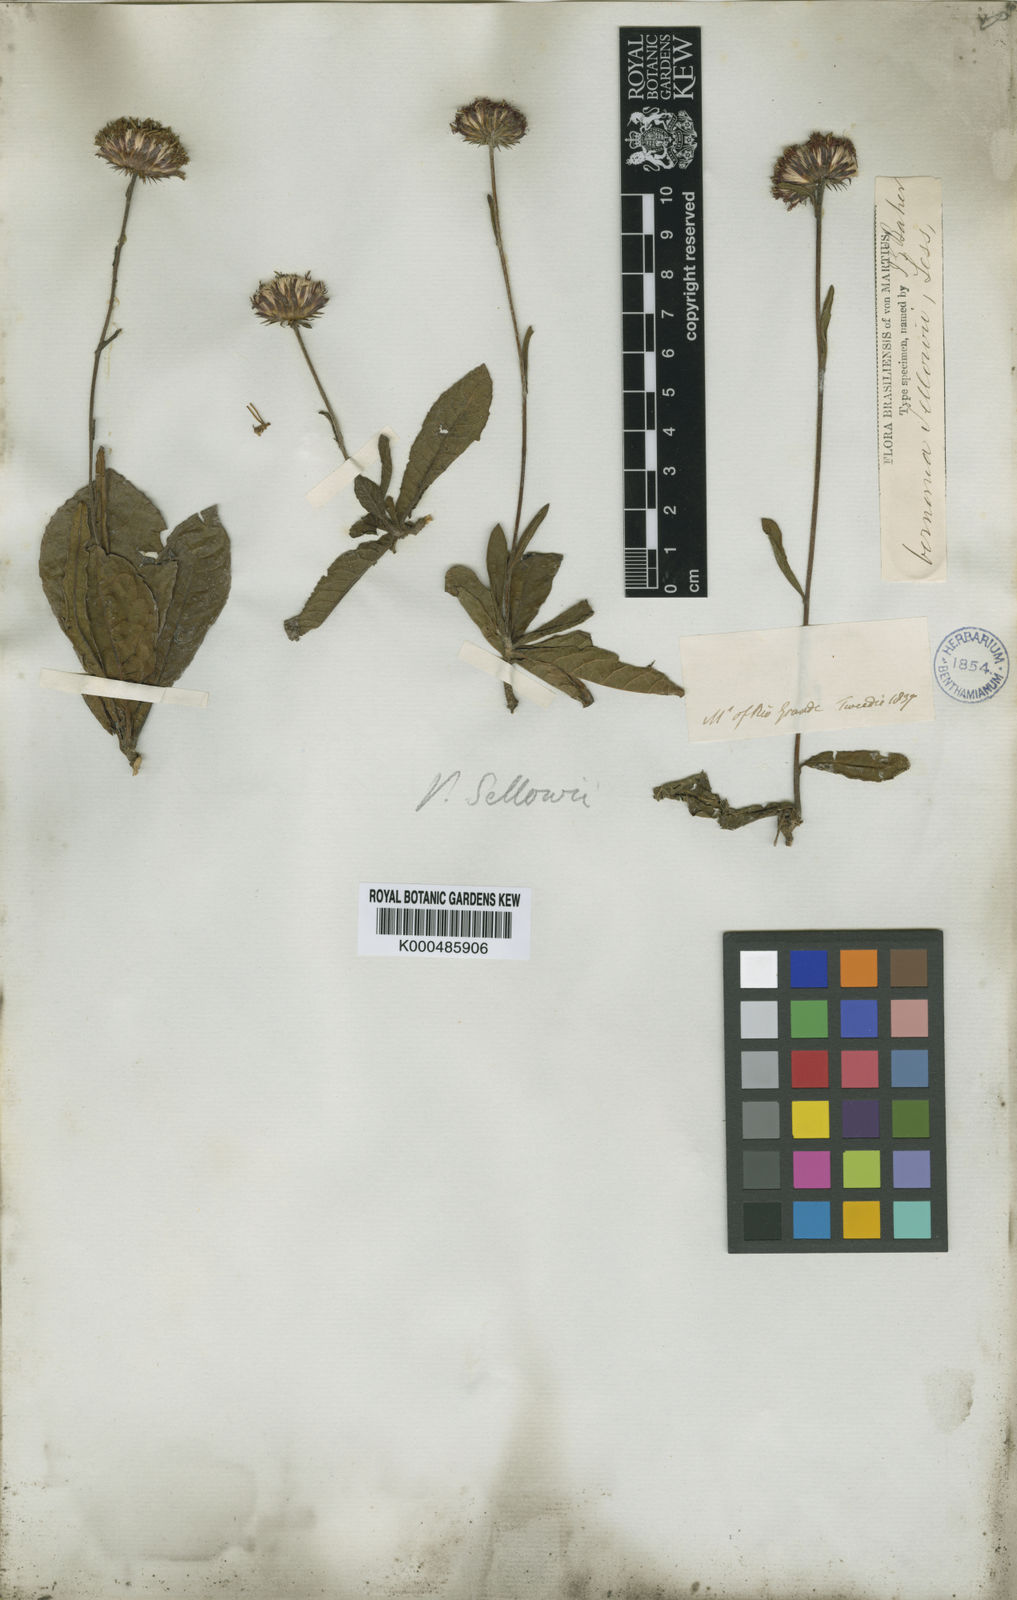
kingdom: Plantae
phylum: Tracheophyta
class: Magnoliopsida
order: Asterales
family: Asteraceae
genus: Lessingianthus
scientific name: Lessingianthus sellowii
